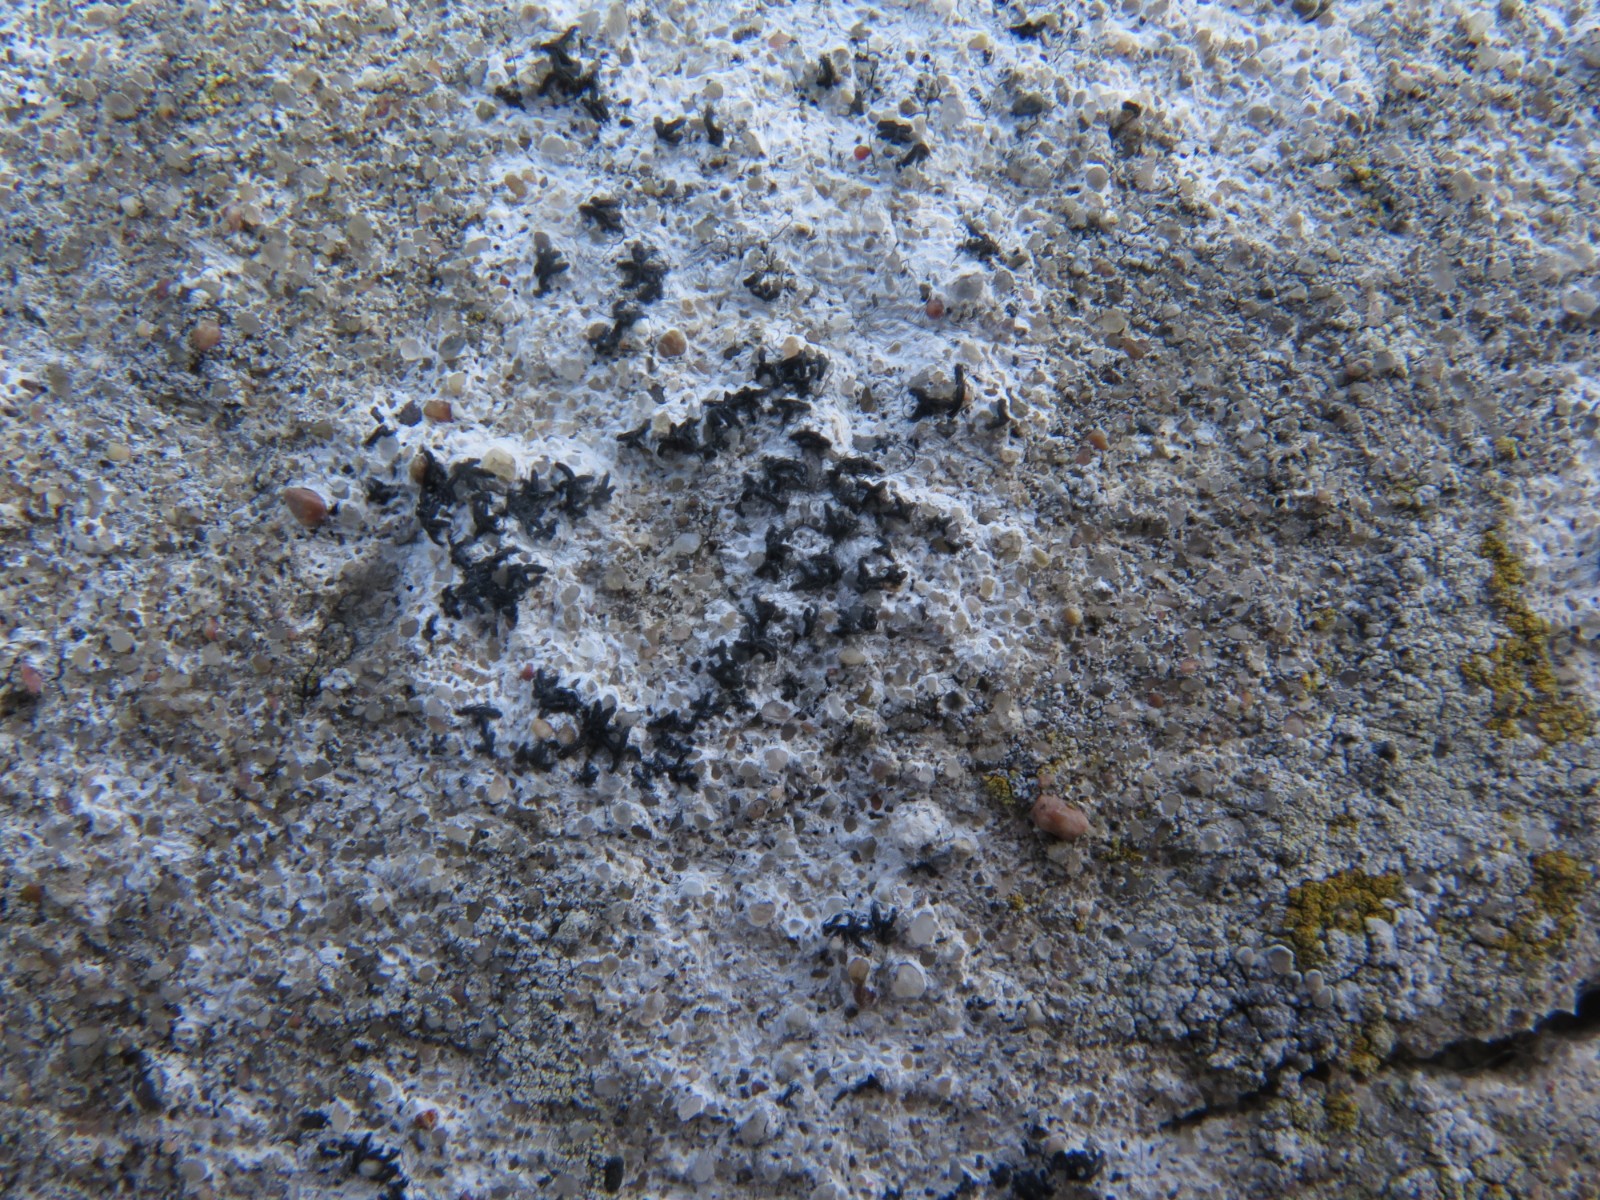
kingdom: Fungi
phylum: Ascomycota
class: Arthoniomycetes
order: Arthoniales
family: Arthoniaceae
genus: Arthonia
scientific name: Arthonia calcarea
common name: kalk-bogstavlav
